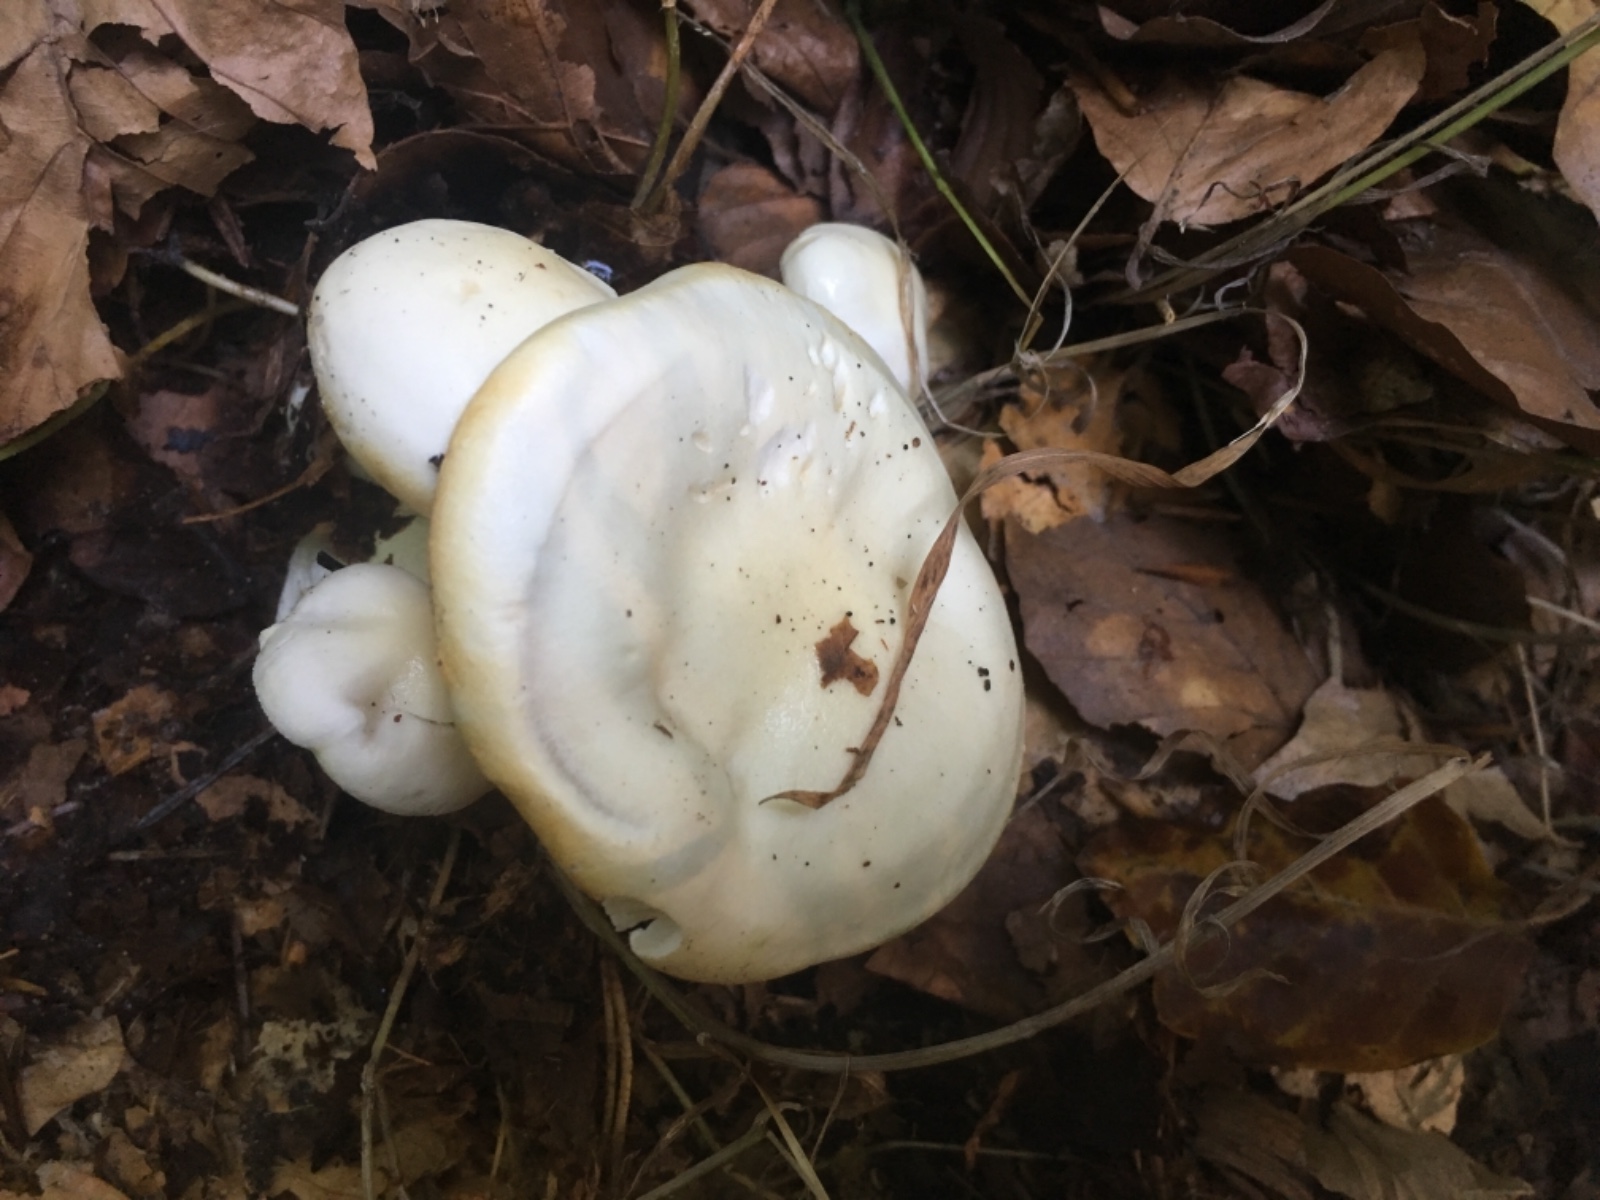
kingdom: Fungi
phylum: Basidiomycota
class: Agaricomycetes
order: Agaricales
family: Hygrophoraceae
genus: Hygrophorus
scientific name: Hygrophorus discoxanthus
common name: ildelugtende sneglehat
